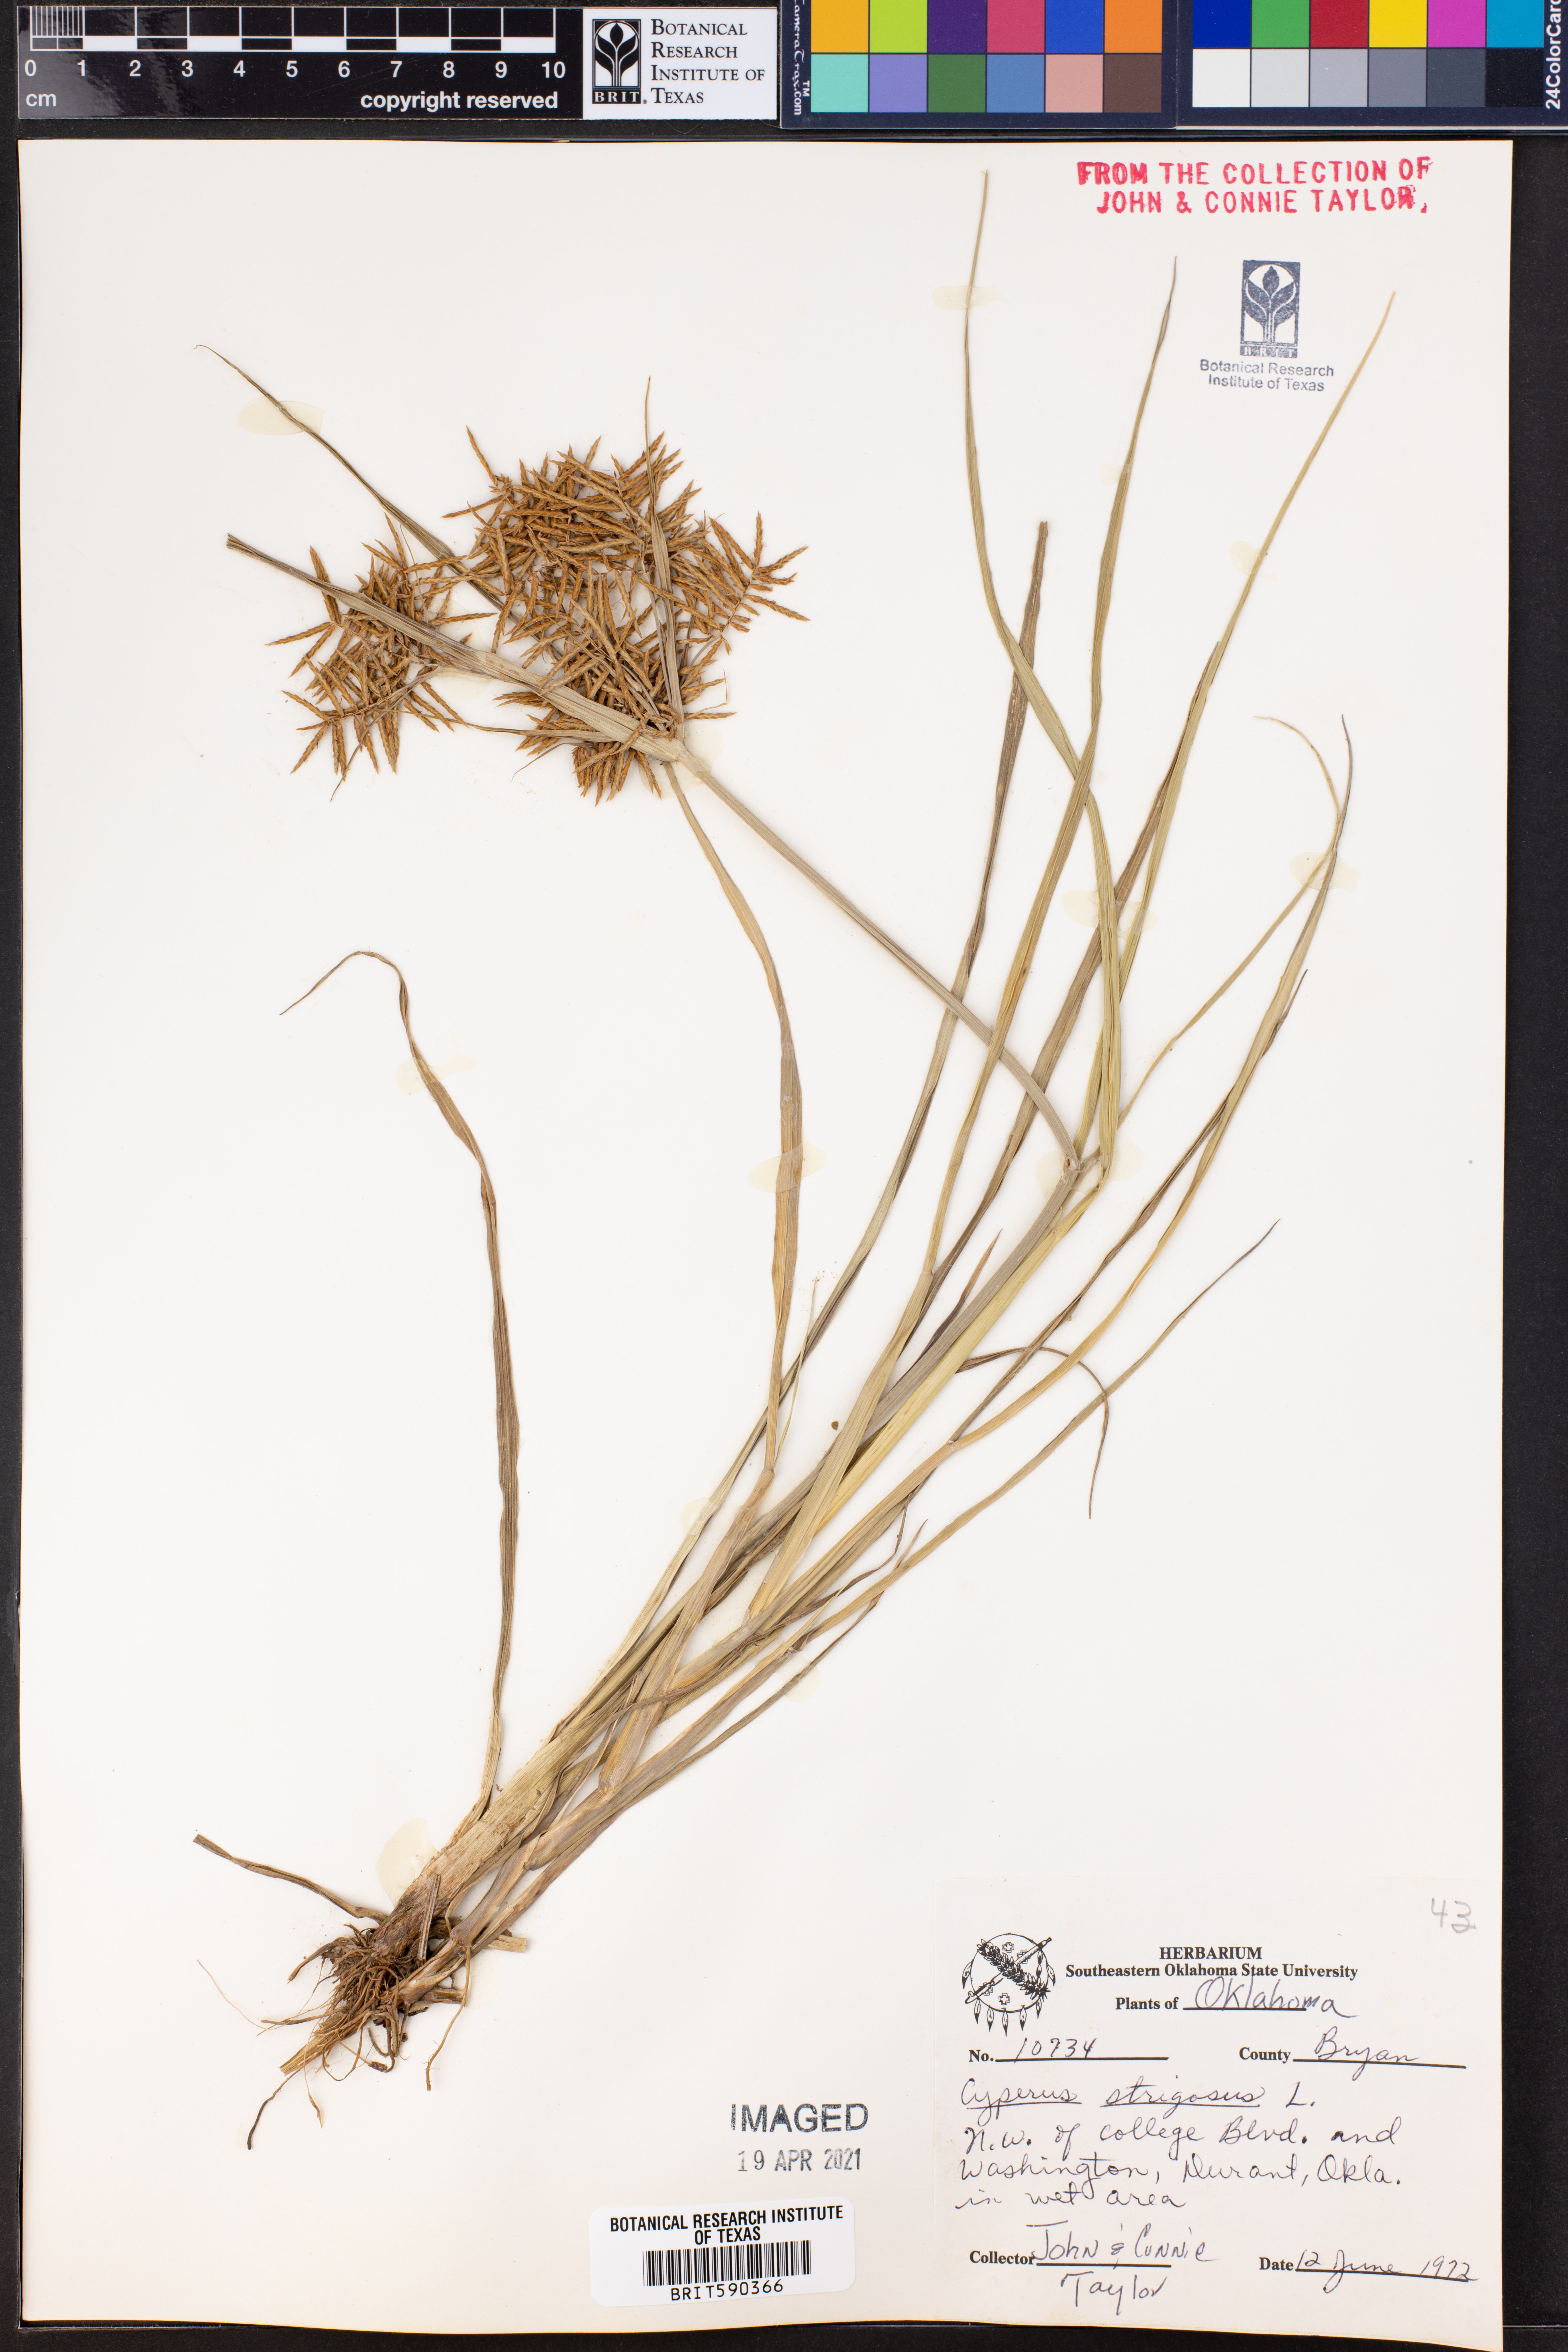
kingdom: Plantae
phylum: Tracheophyta
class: Liliopsida
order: Poales
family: Cyperaceae
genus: Cyperus
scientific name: Cyperus strigosus
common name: False nutsedge
